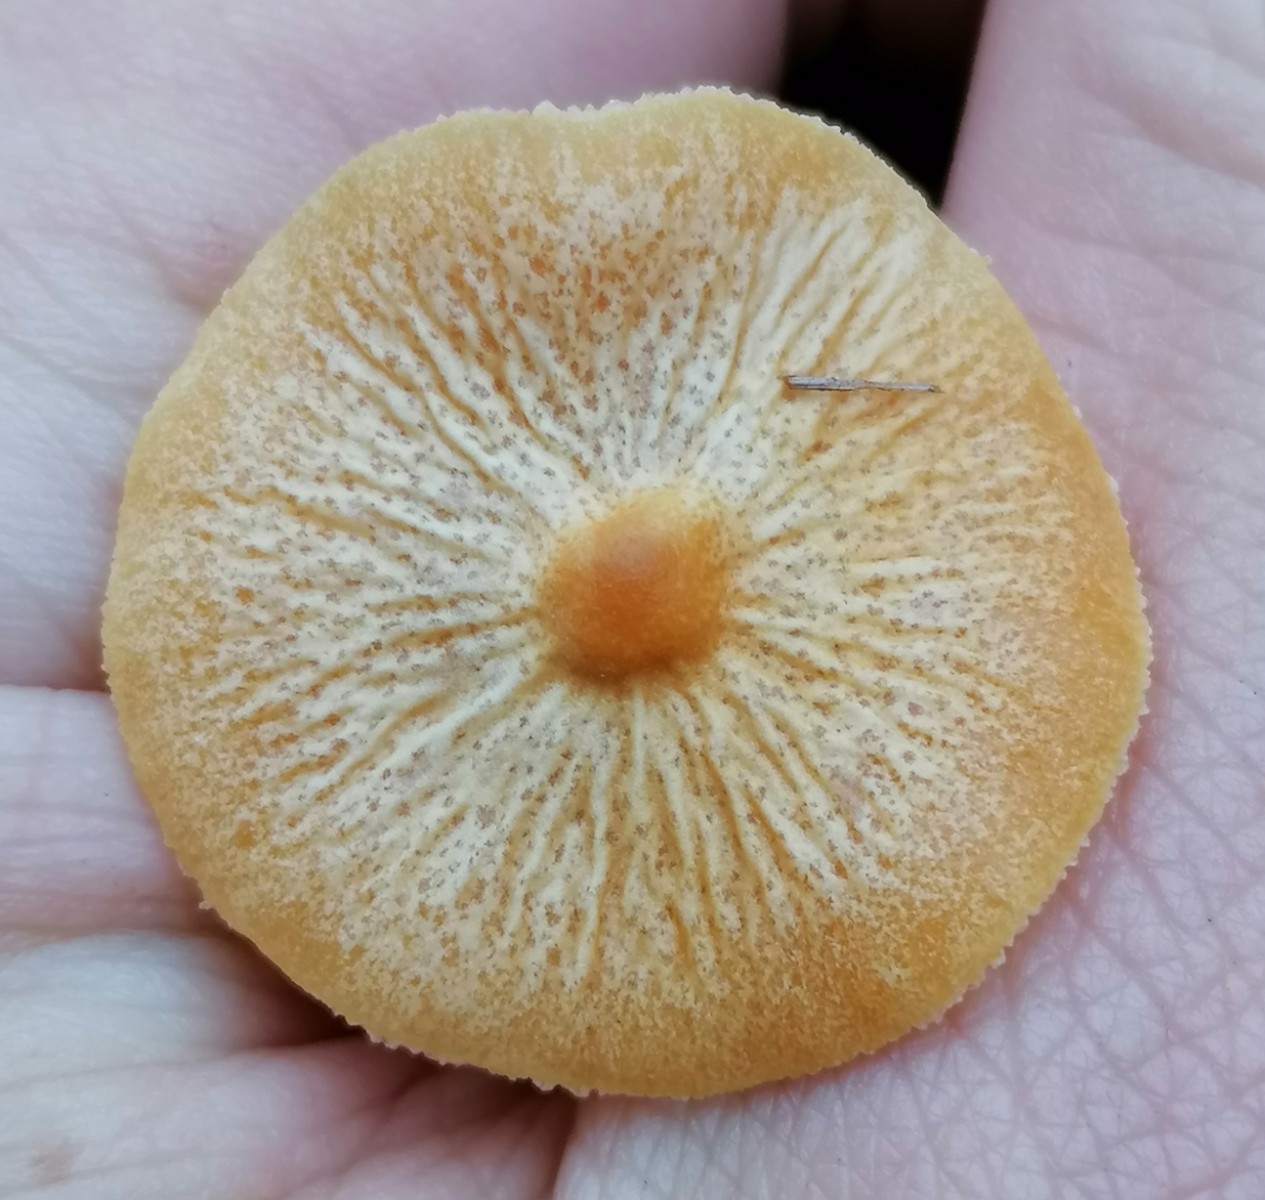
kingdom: Fungi
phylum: Basidiomycota
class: Agaricomycetes
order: Agaricales
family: Tricholomataceae
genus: Cystoderma
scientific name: Cystoderma amianthinum
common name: okkergul grynhat
